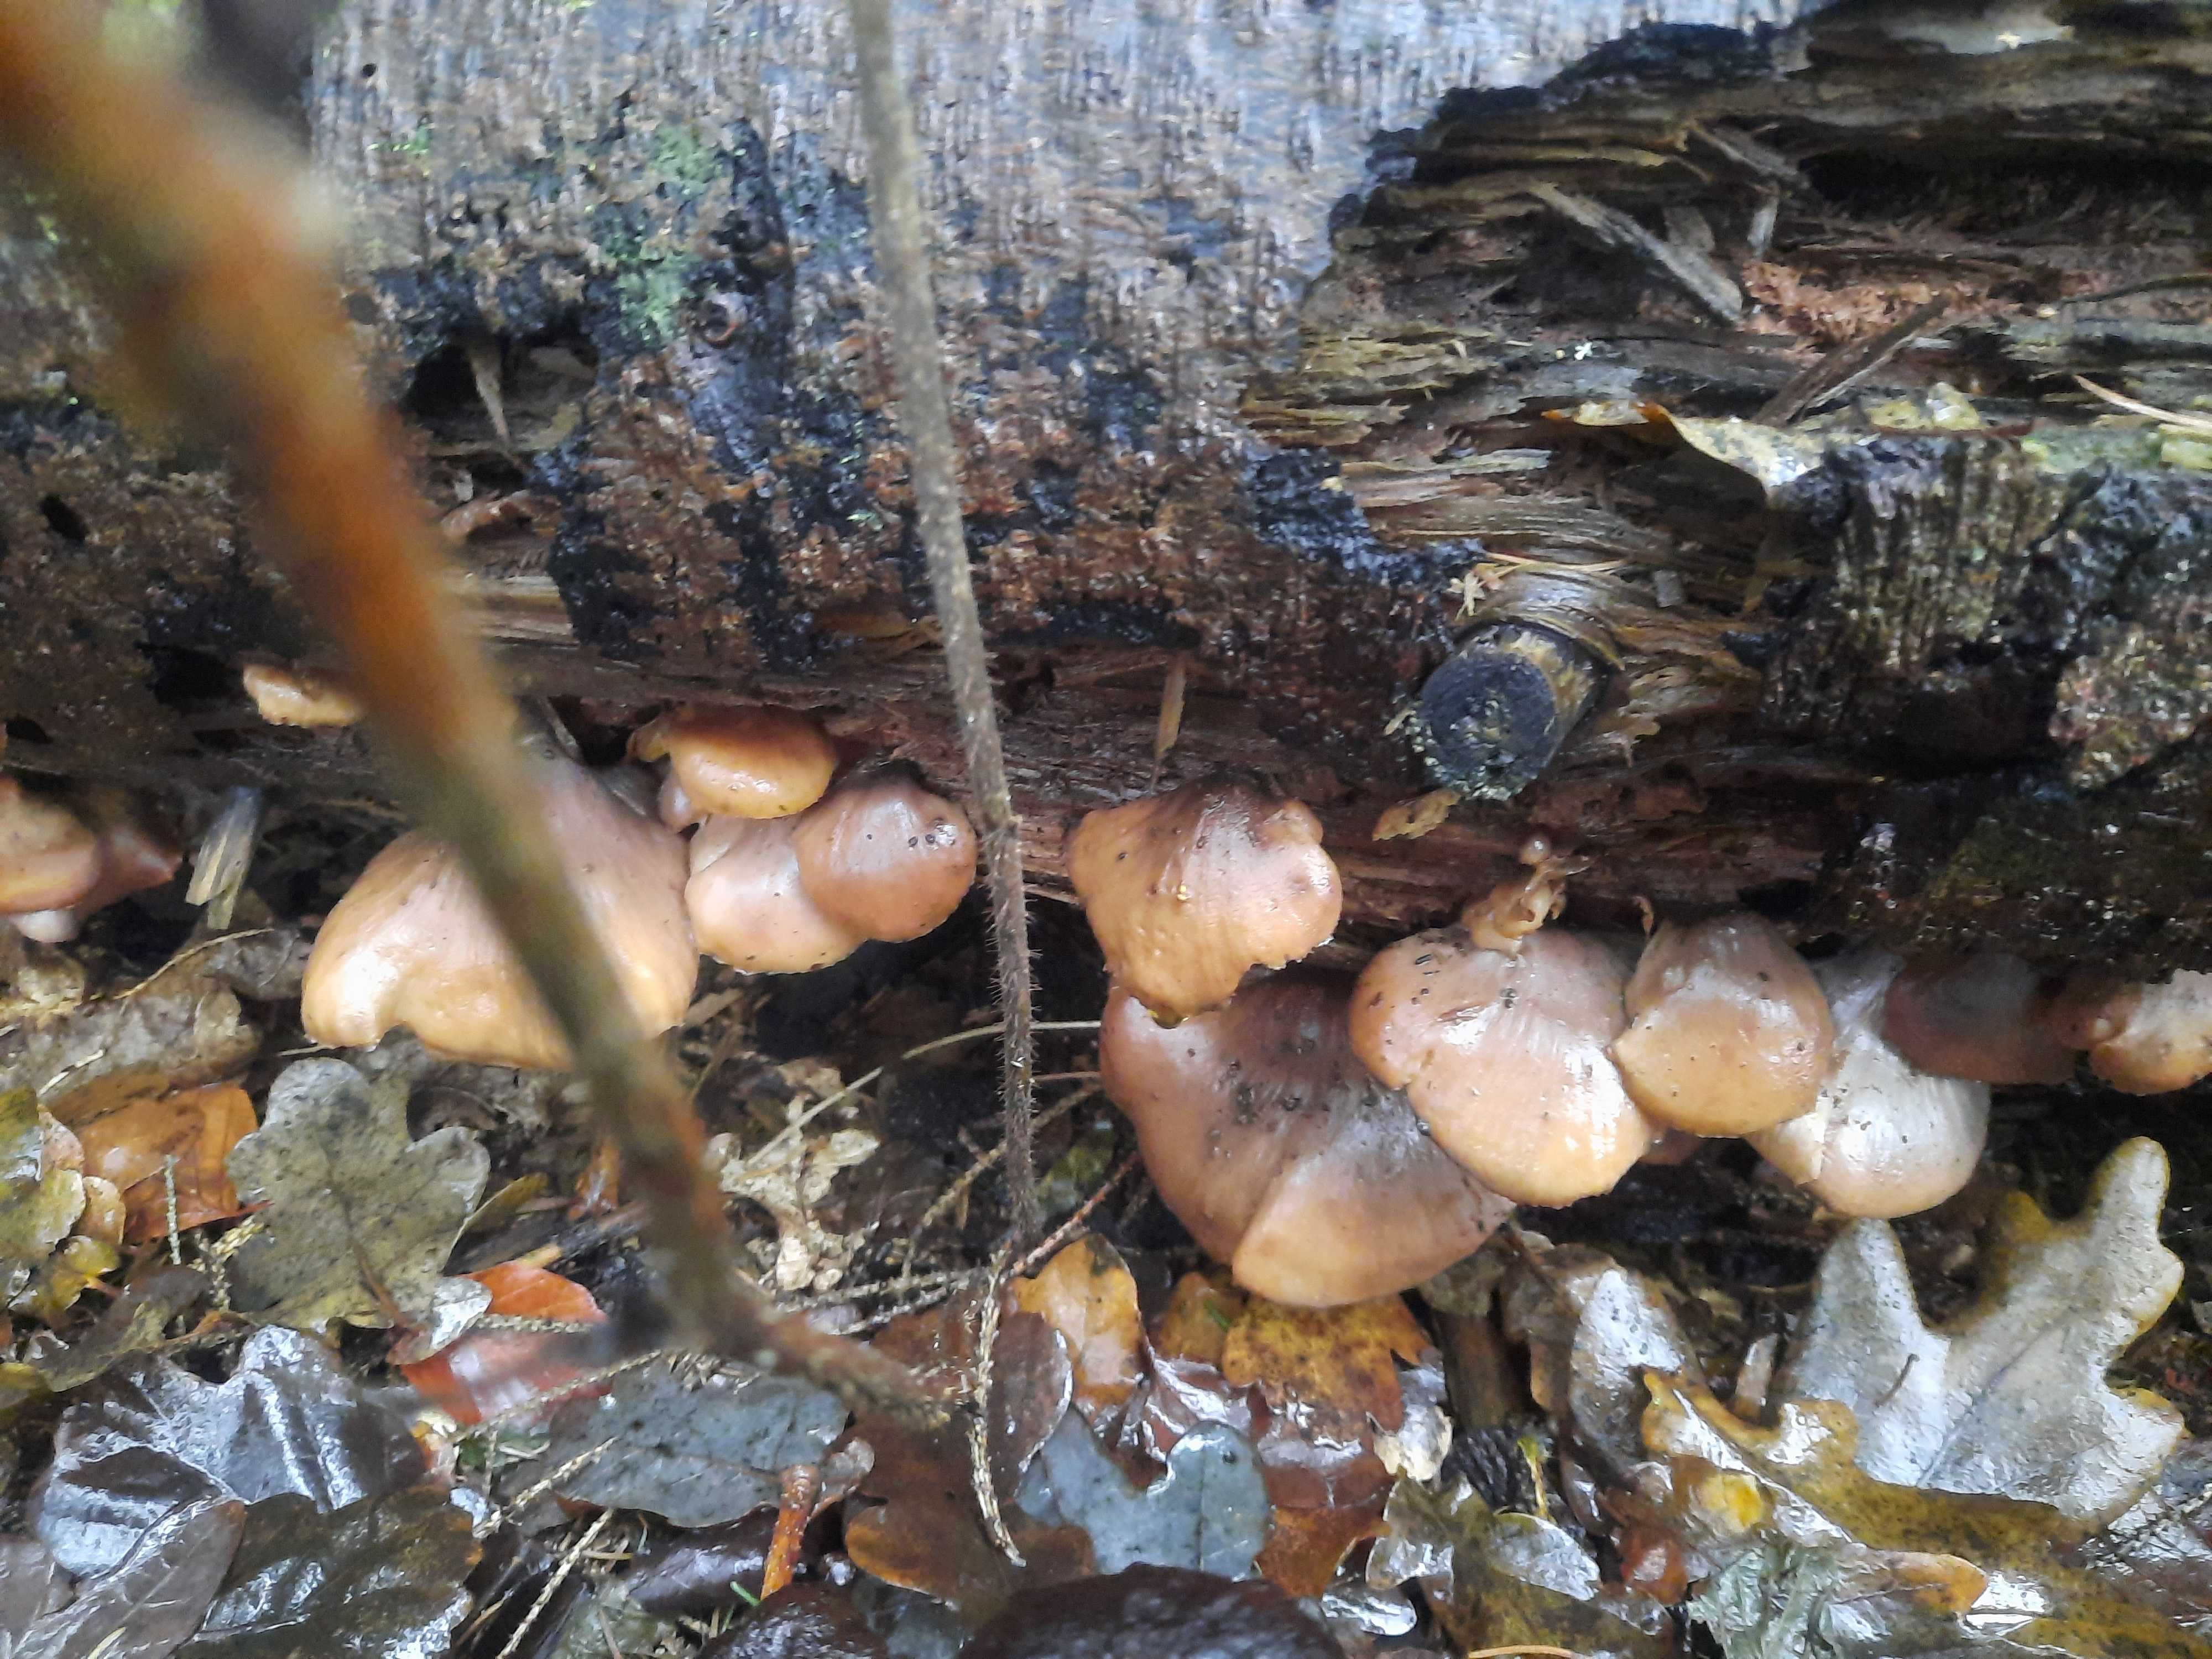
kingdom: Fungi
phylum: Basidiomycota
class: Agaricomycetes
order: Russulales
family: Auriscalpiaceae
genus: Lentinellus
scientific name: Lentinellus
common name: savbladhat
